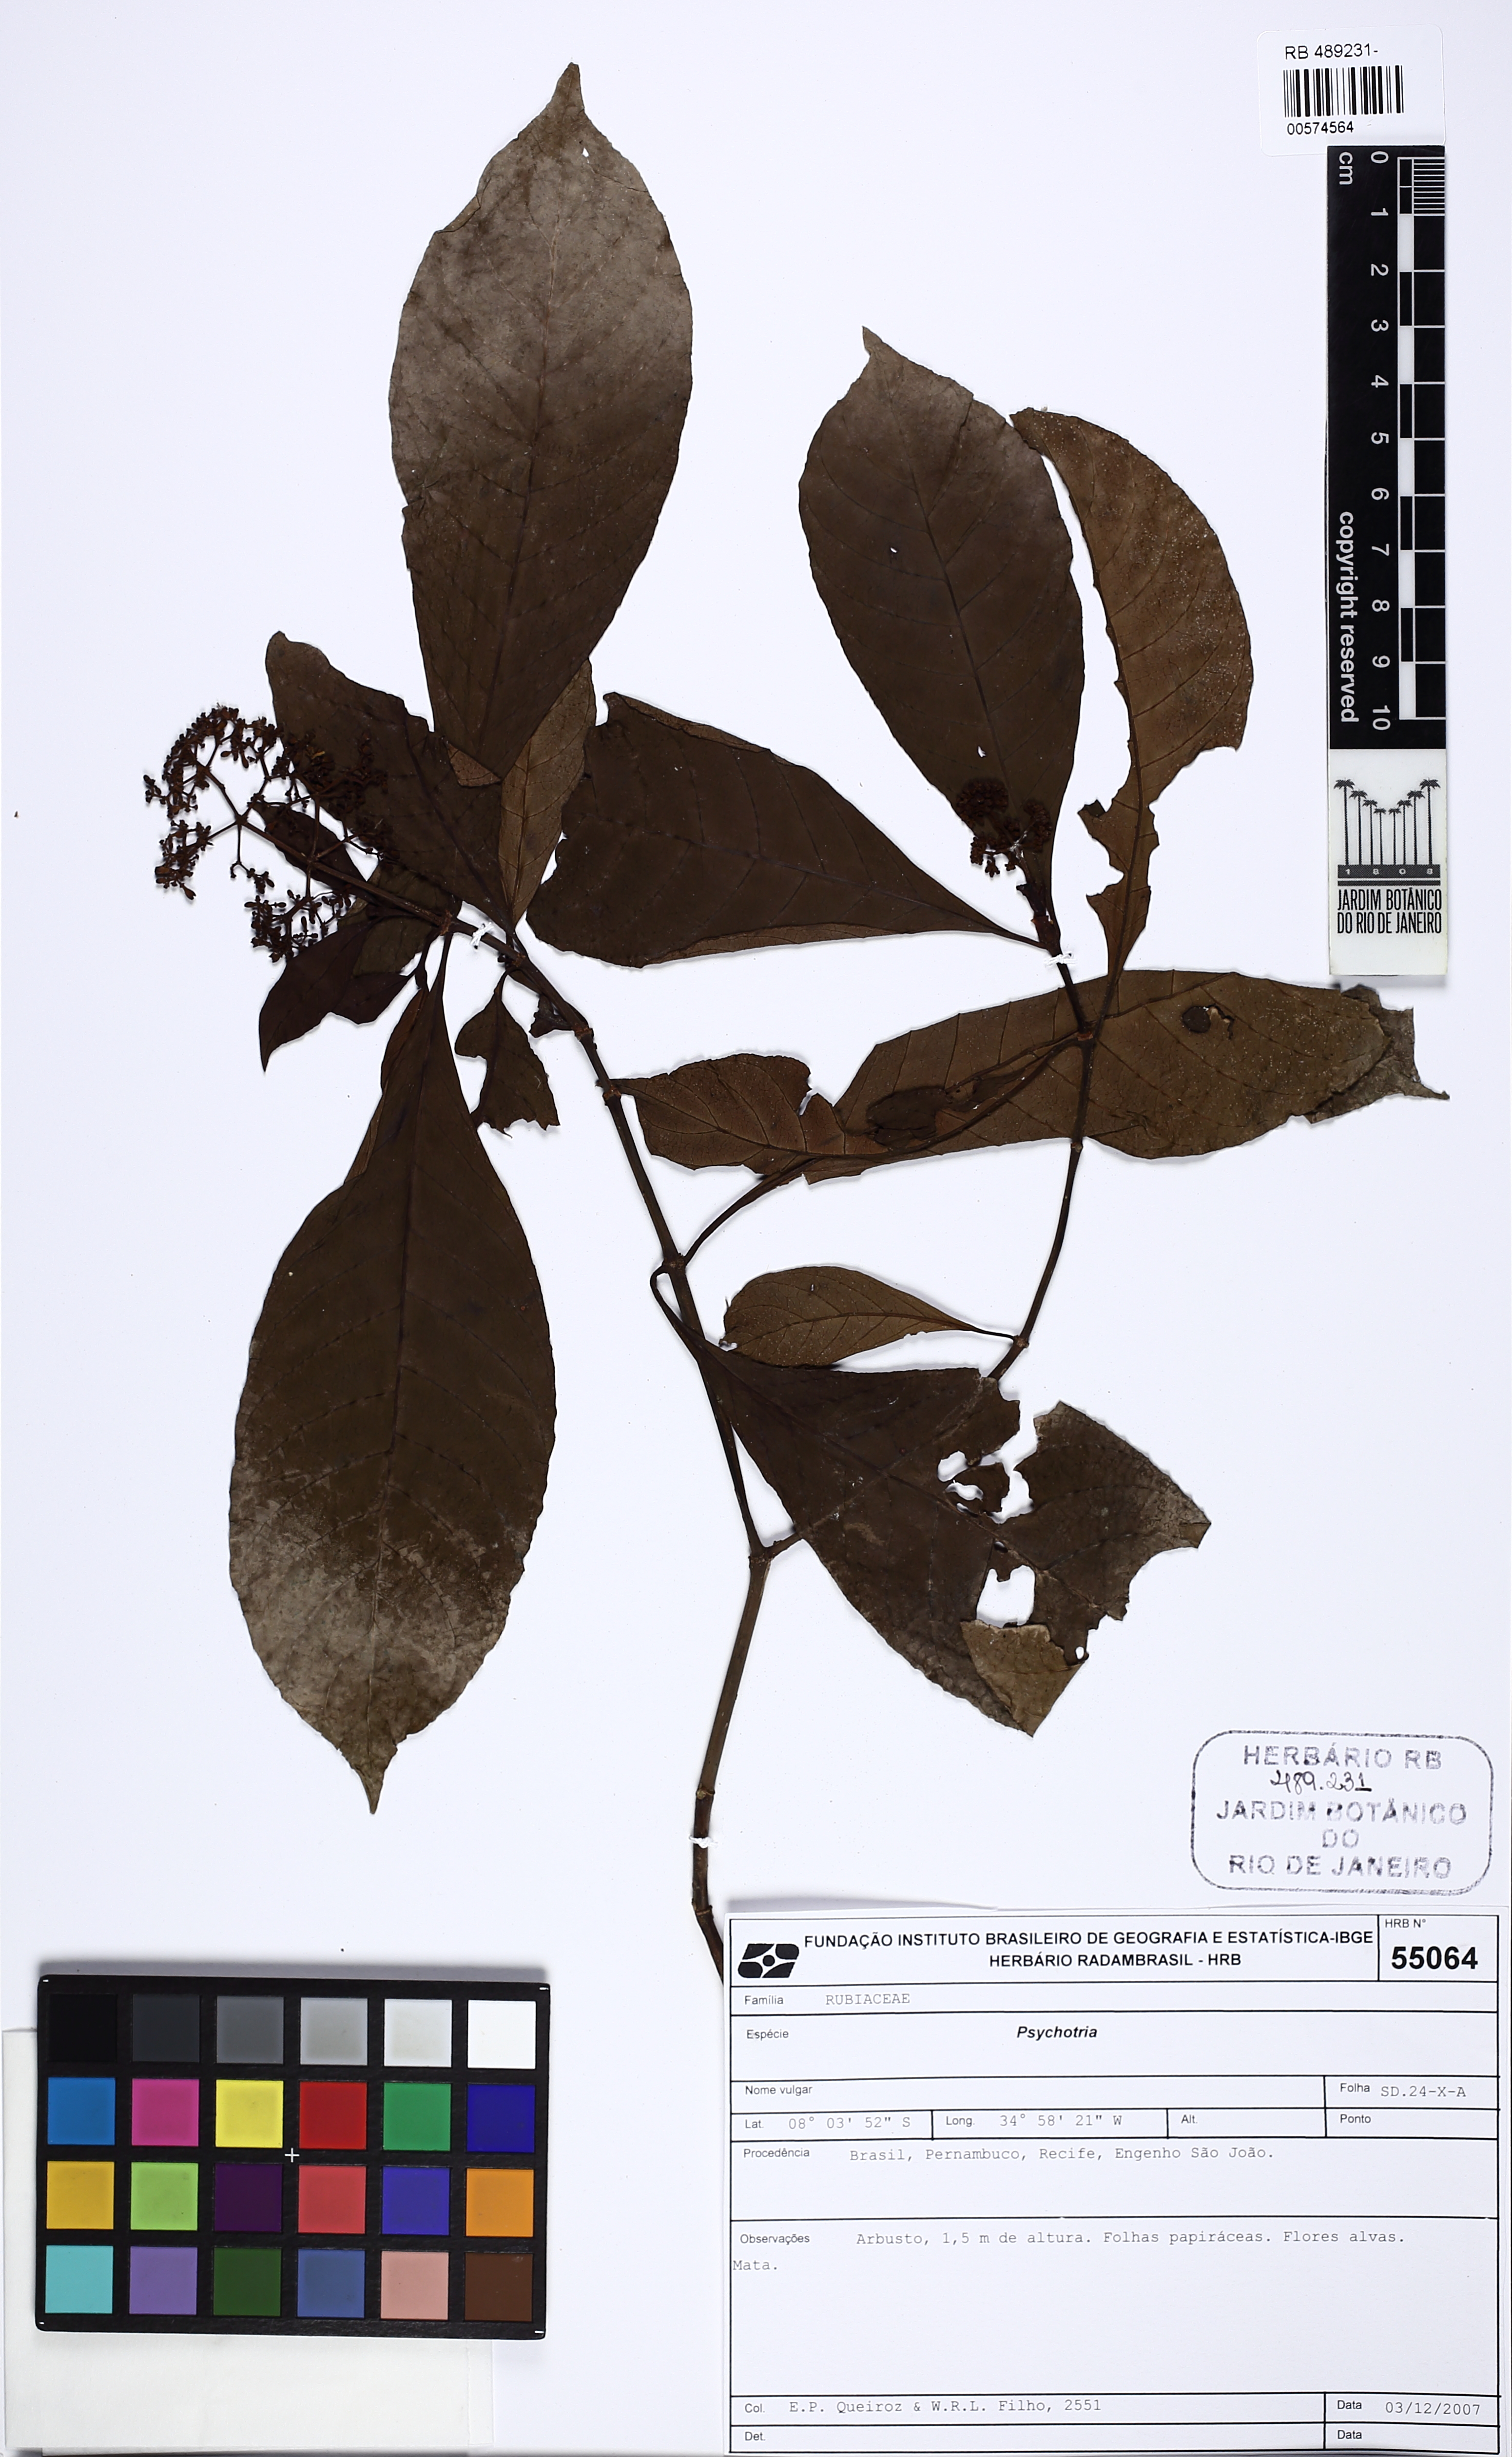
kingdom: Plantae
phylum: Tracheophyta
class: Magnoliopsida
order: Gentianales
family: Rubiaceae
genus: Psychotria
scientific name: Psychotria carthagenensis
